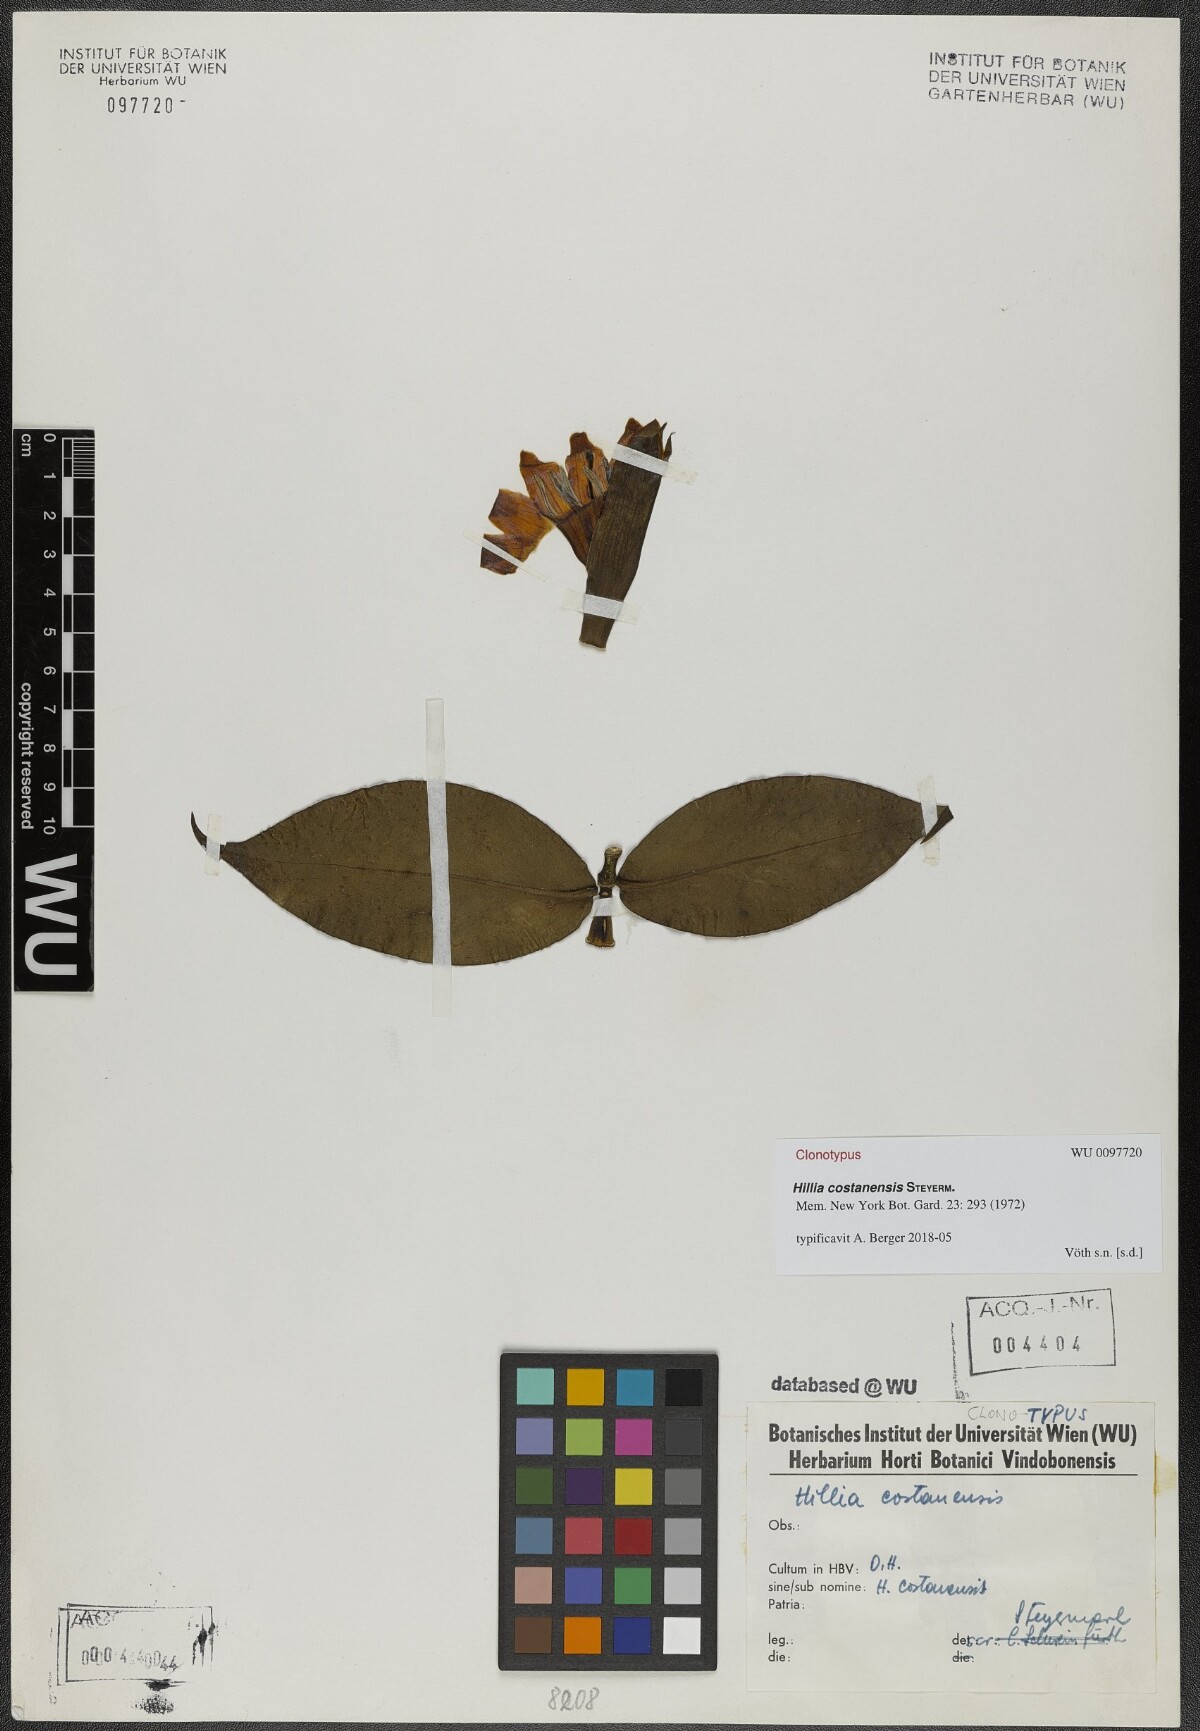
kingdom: Plantae
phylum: Tracheophyta
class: Magnoliopsida
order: Gentianales
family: Rubiaceae
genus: Hillia
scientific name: Hillia costanensis
